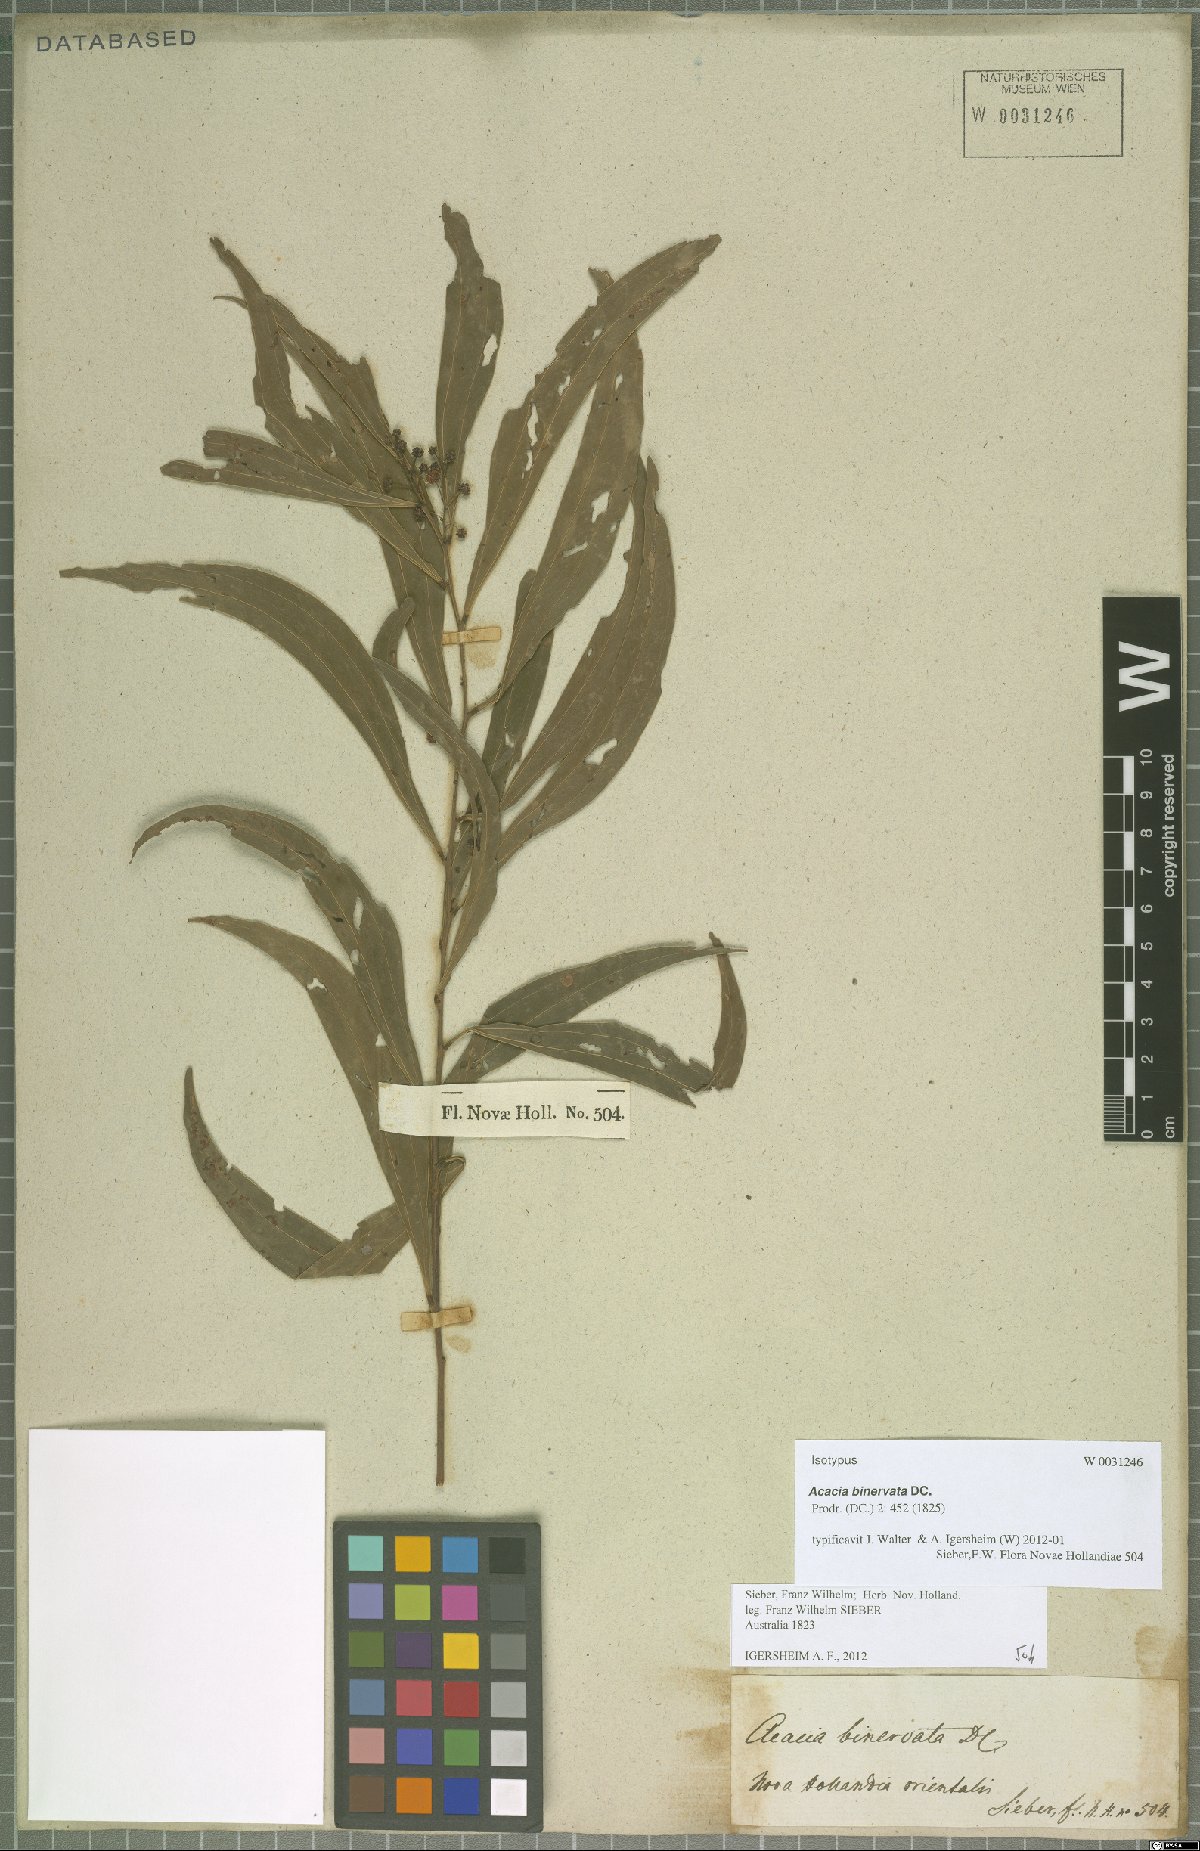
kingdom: Plantae
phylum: Tracheophyta
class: Magnoliopsida
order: Fabales
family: Fabaceae
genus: Acacia
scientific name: Acacia binervata
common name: Two-veined hickory
